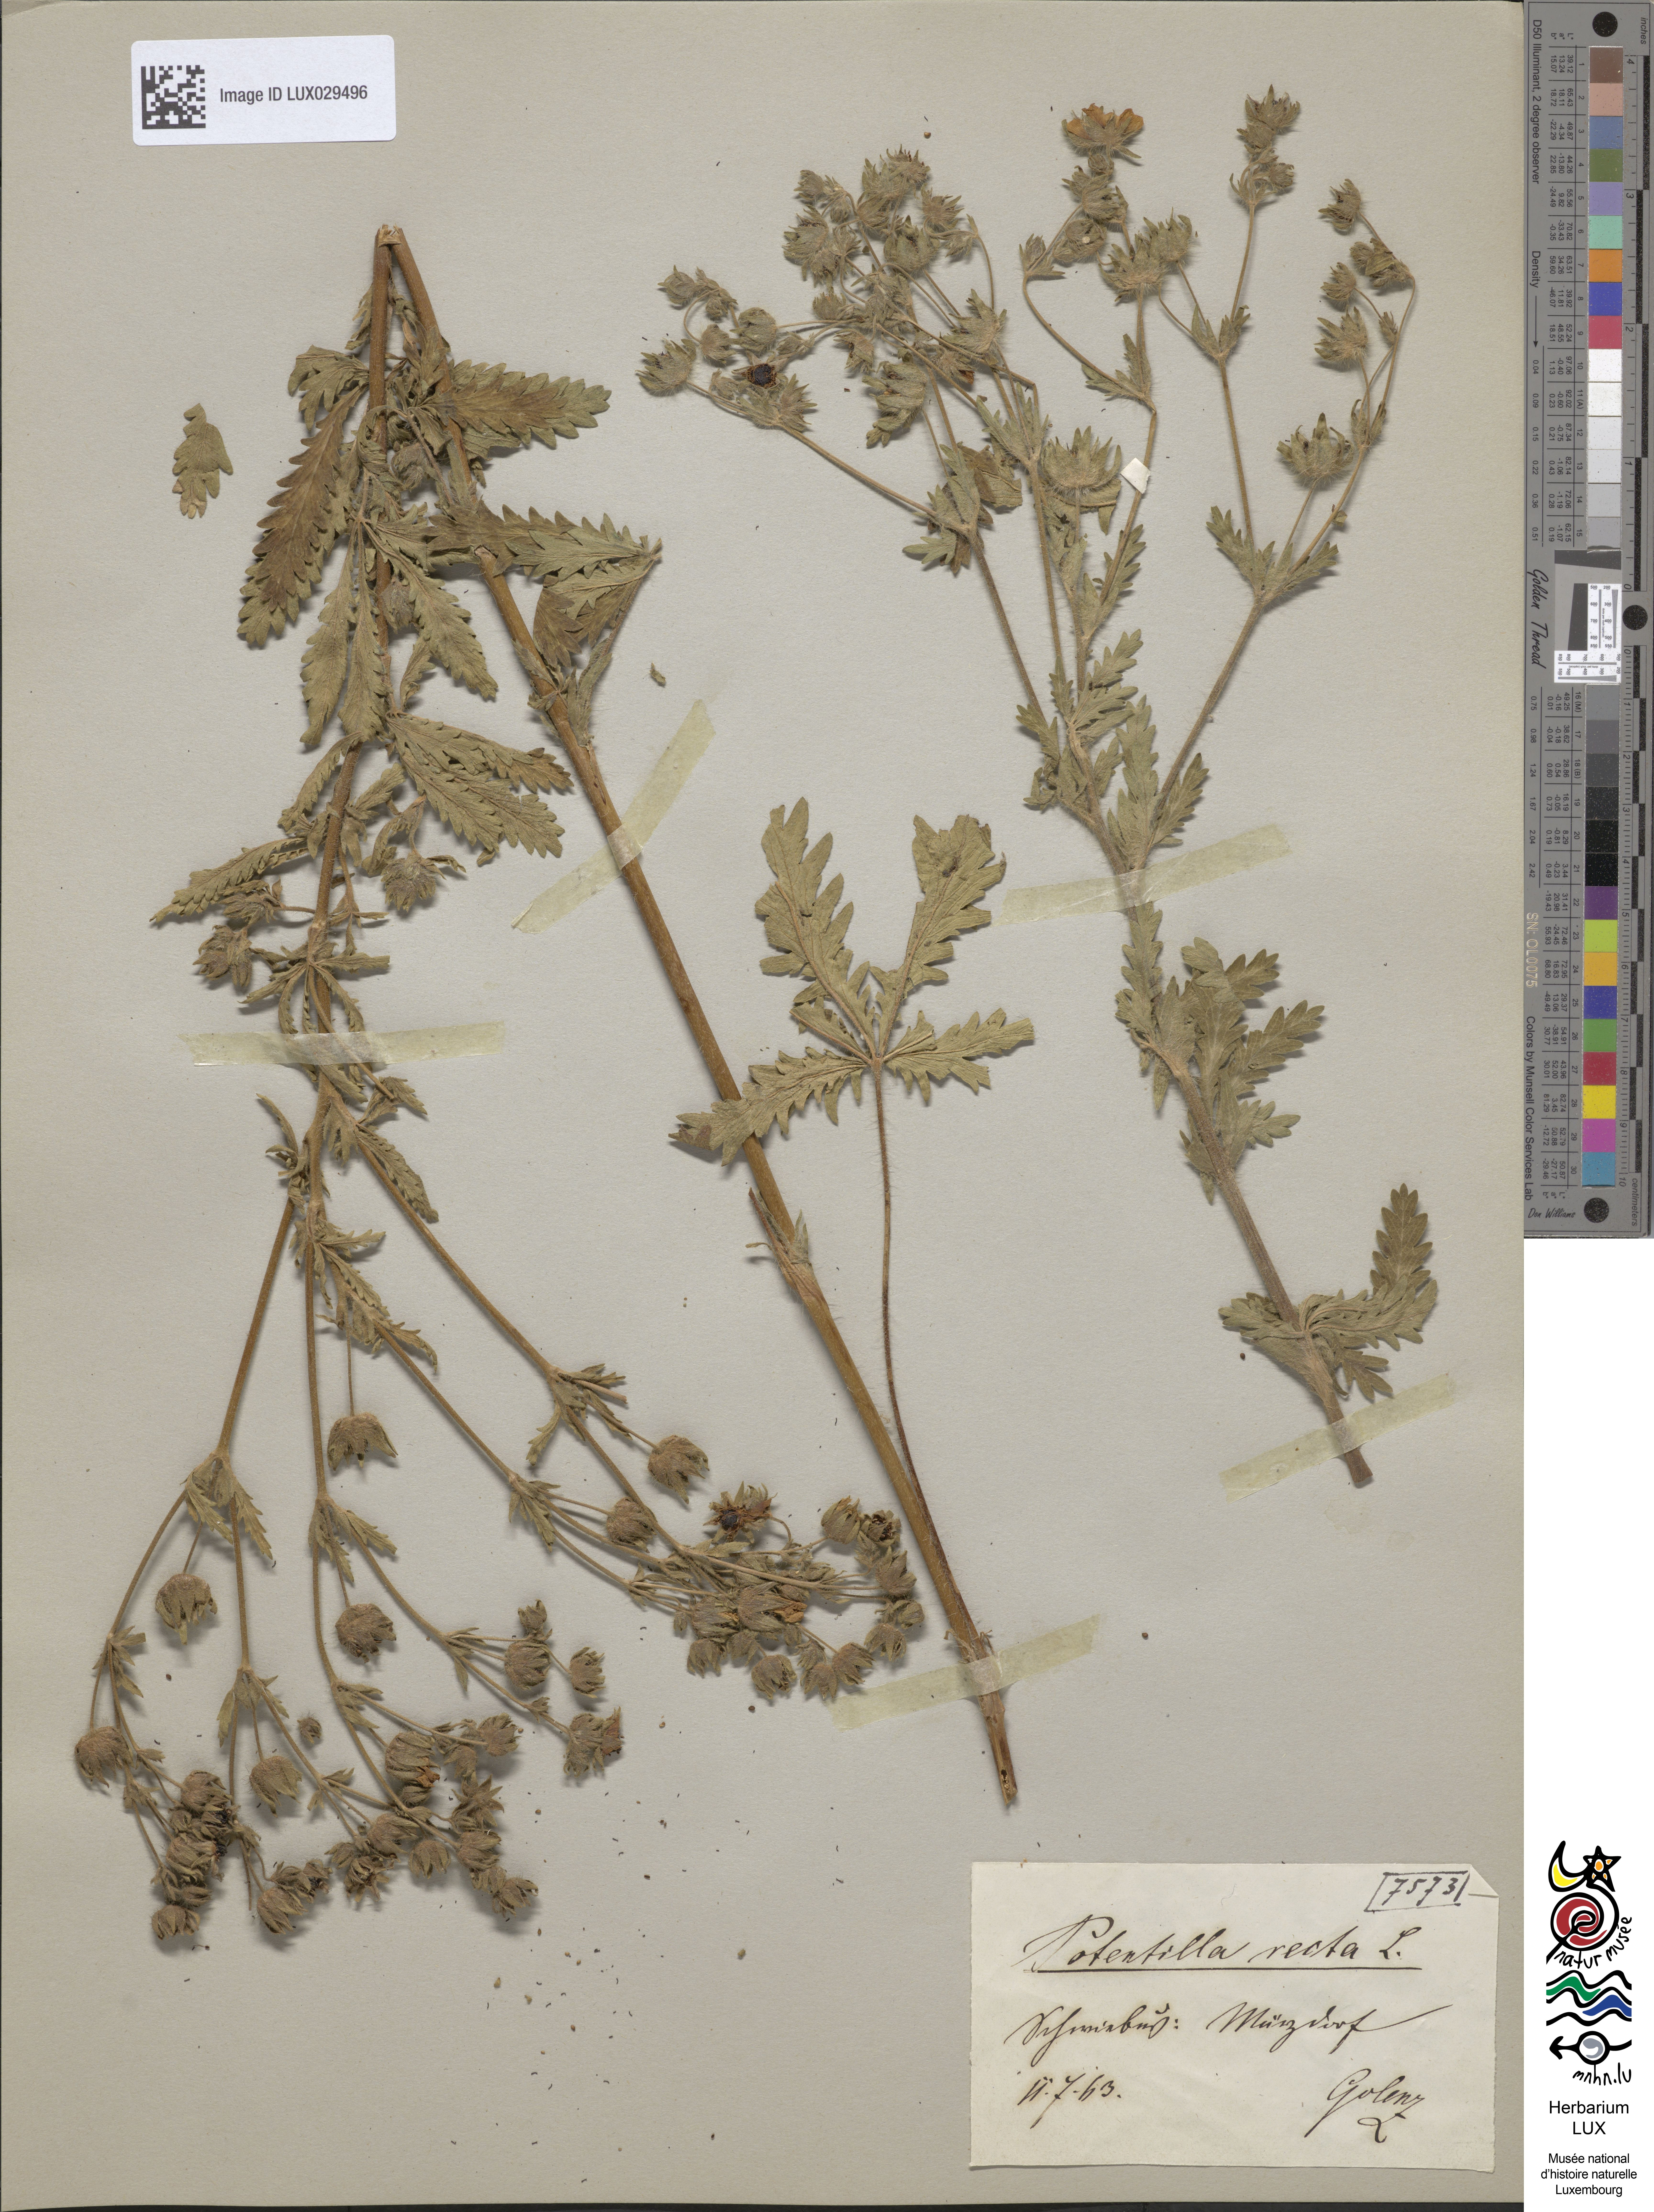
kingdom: Plantae
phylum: Tracheophyta
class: Magnoliopsida
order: Rosales
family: Rosaceae
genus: Potentilla
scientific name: Potentilla recta
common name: Sulphur cinquefoil
